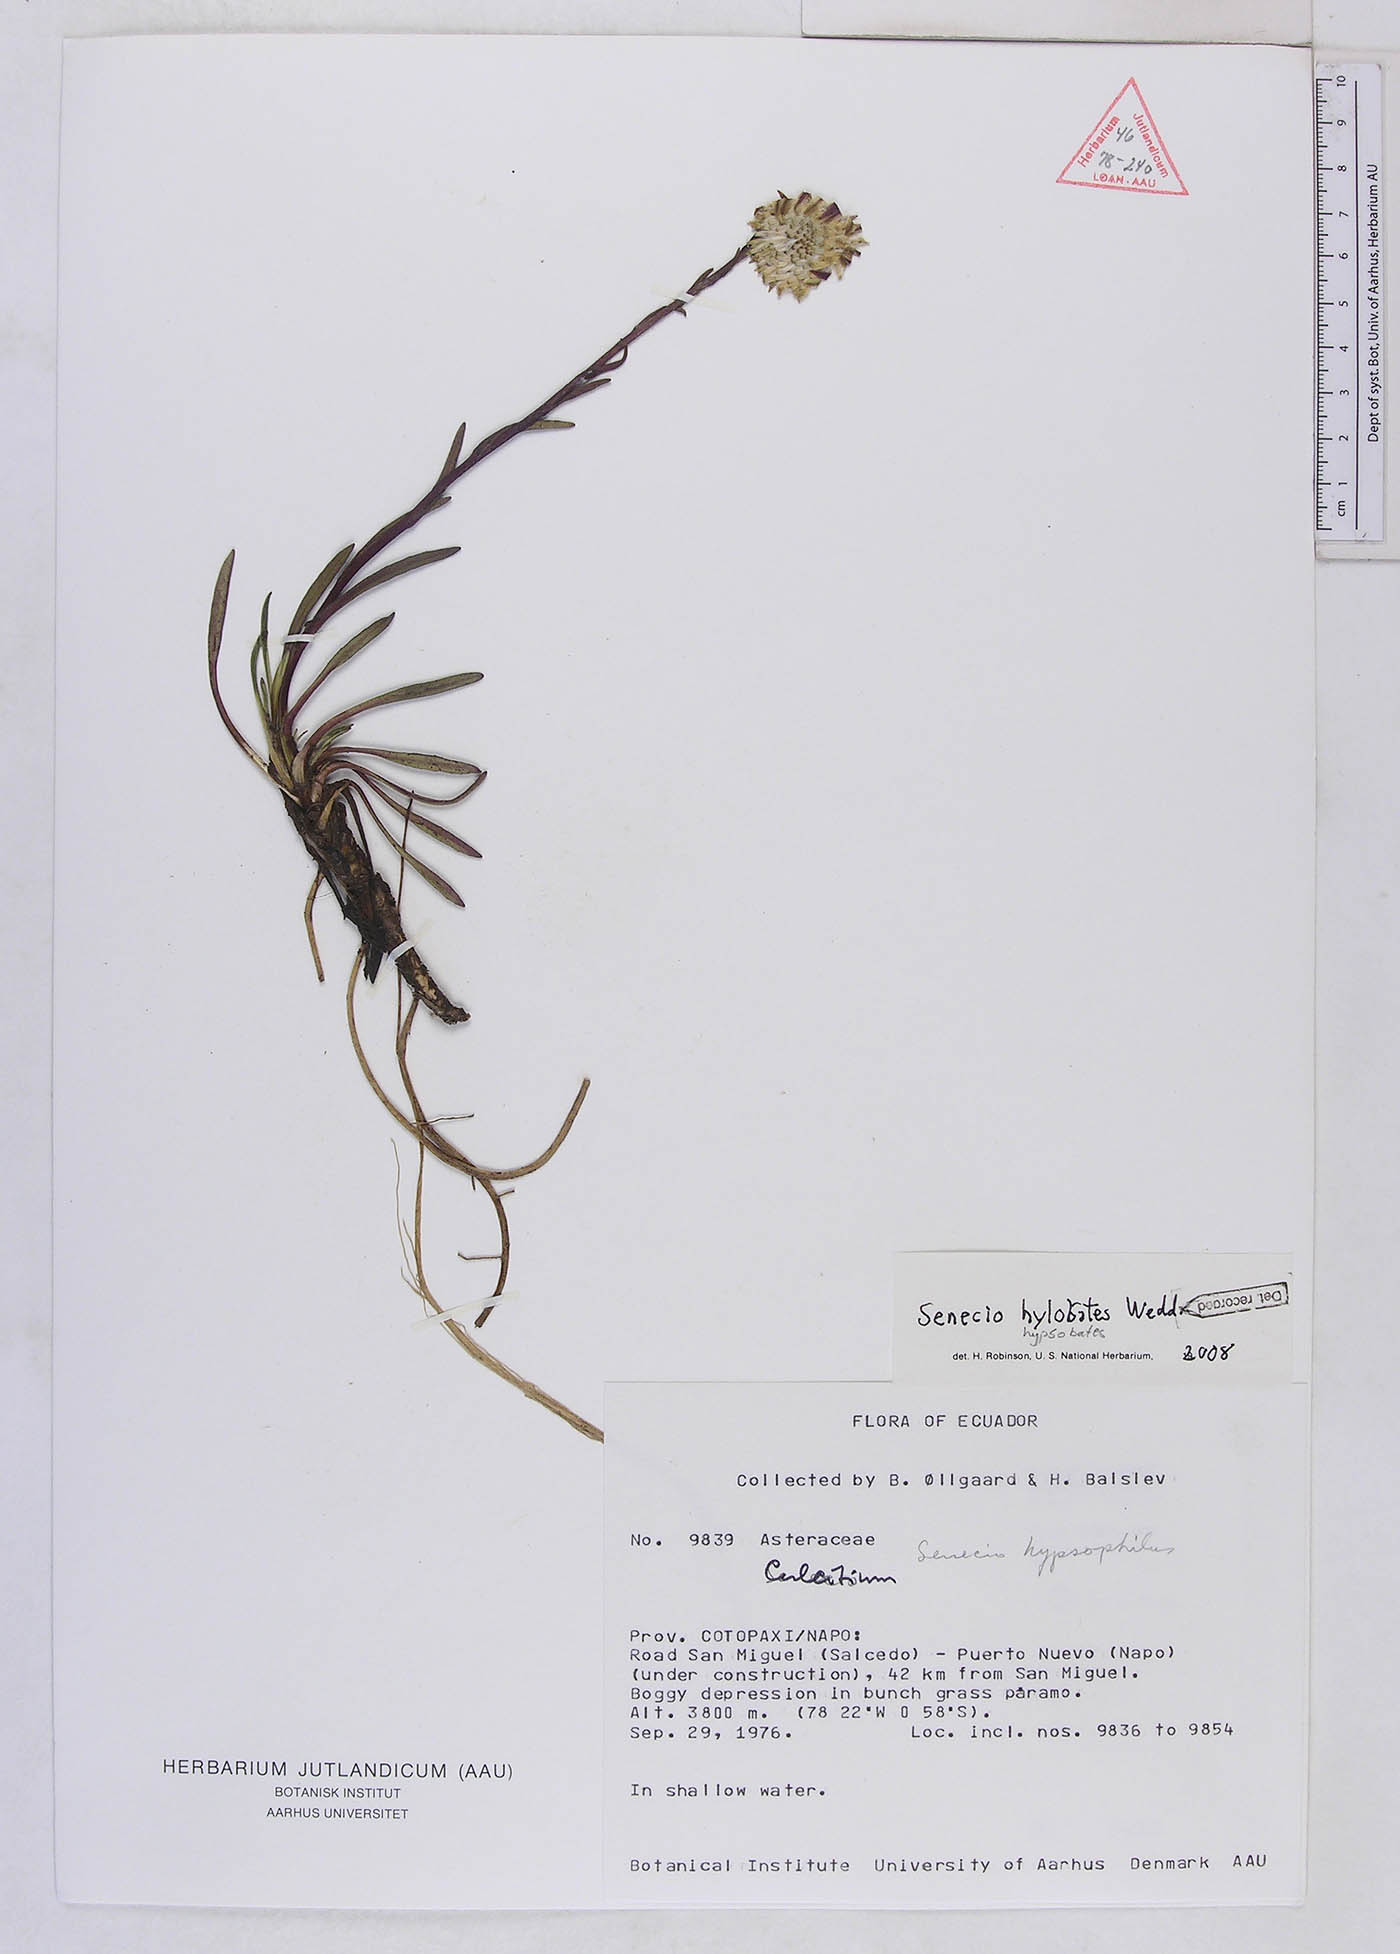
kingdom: Plantae
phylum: Tracheophyta
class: Magnoliopsida
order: Asterales
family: Asteraceae
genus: Senecio
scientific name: Senecio hypsobates
